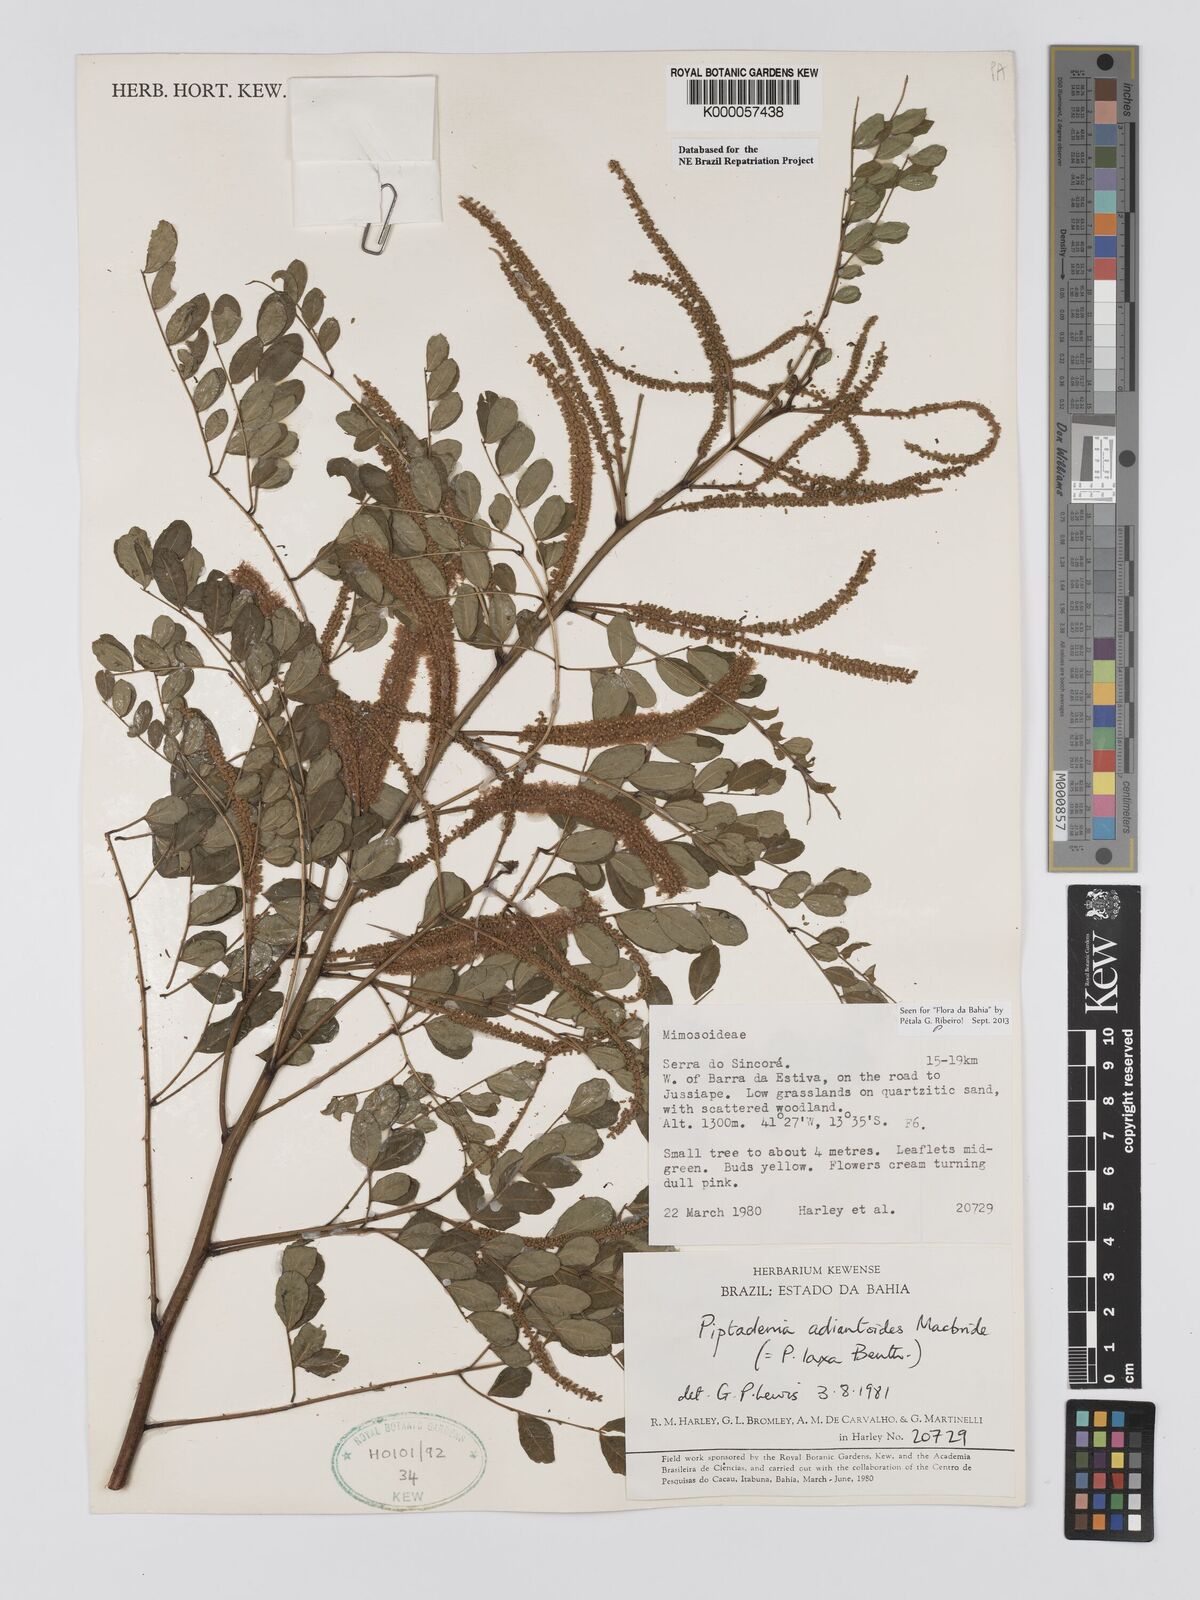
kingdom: Plantae
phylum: Tracheophyta
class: Magnoliopsida
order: Fabales
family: Fabaceae
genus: Piptadenia
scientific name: Piptadenia adiantoides
